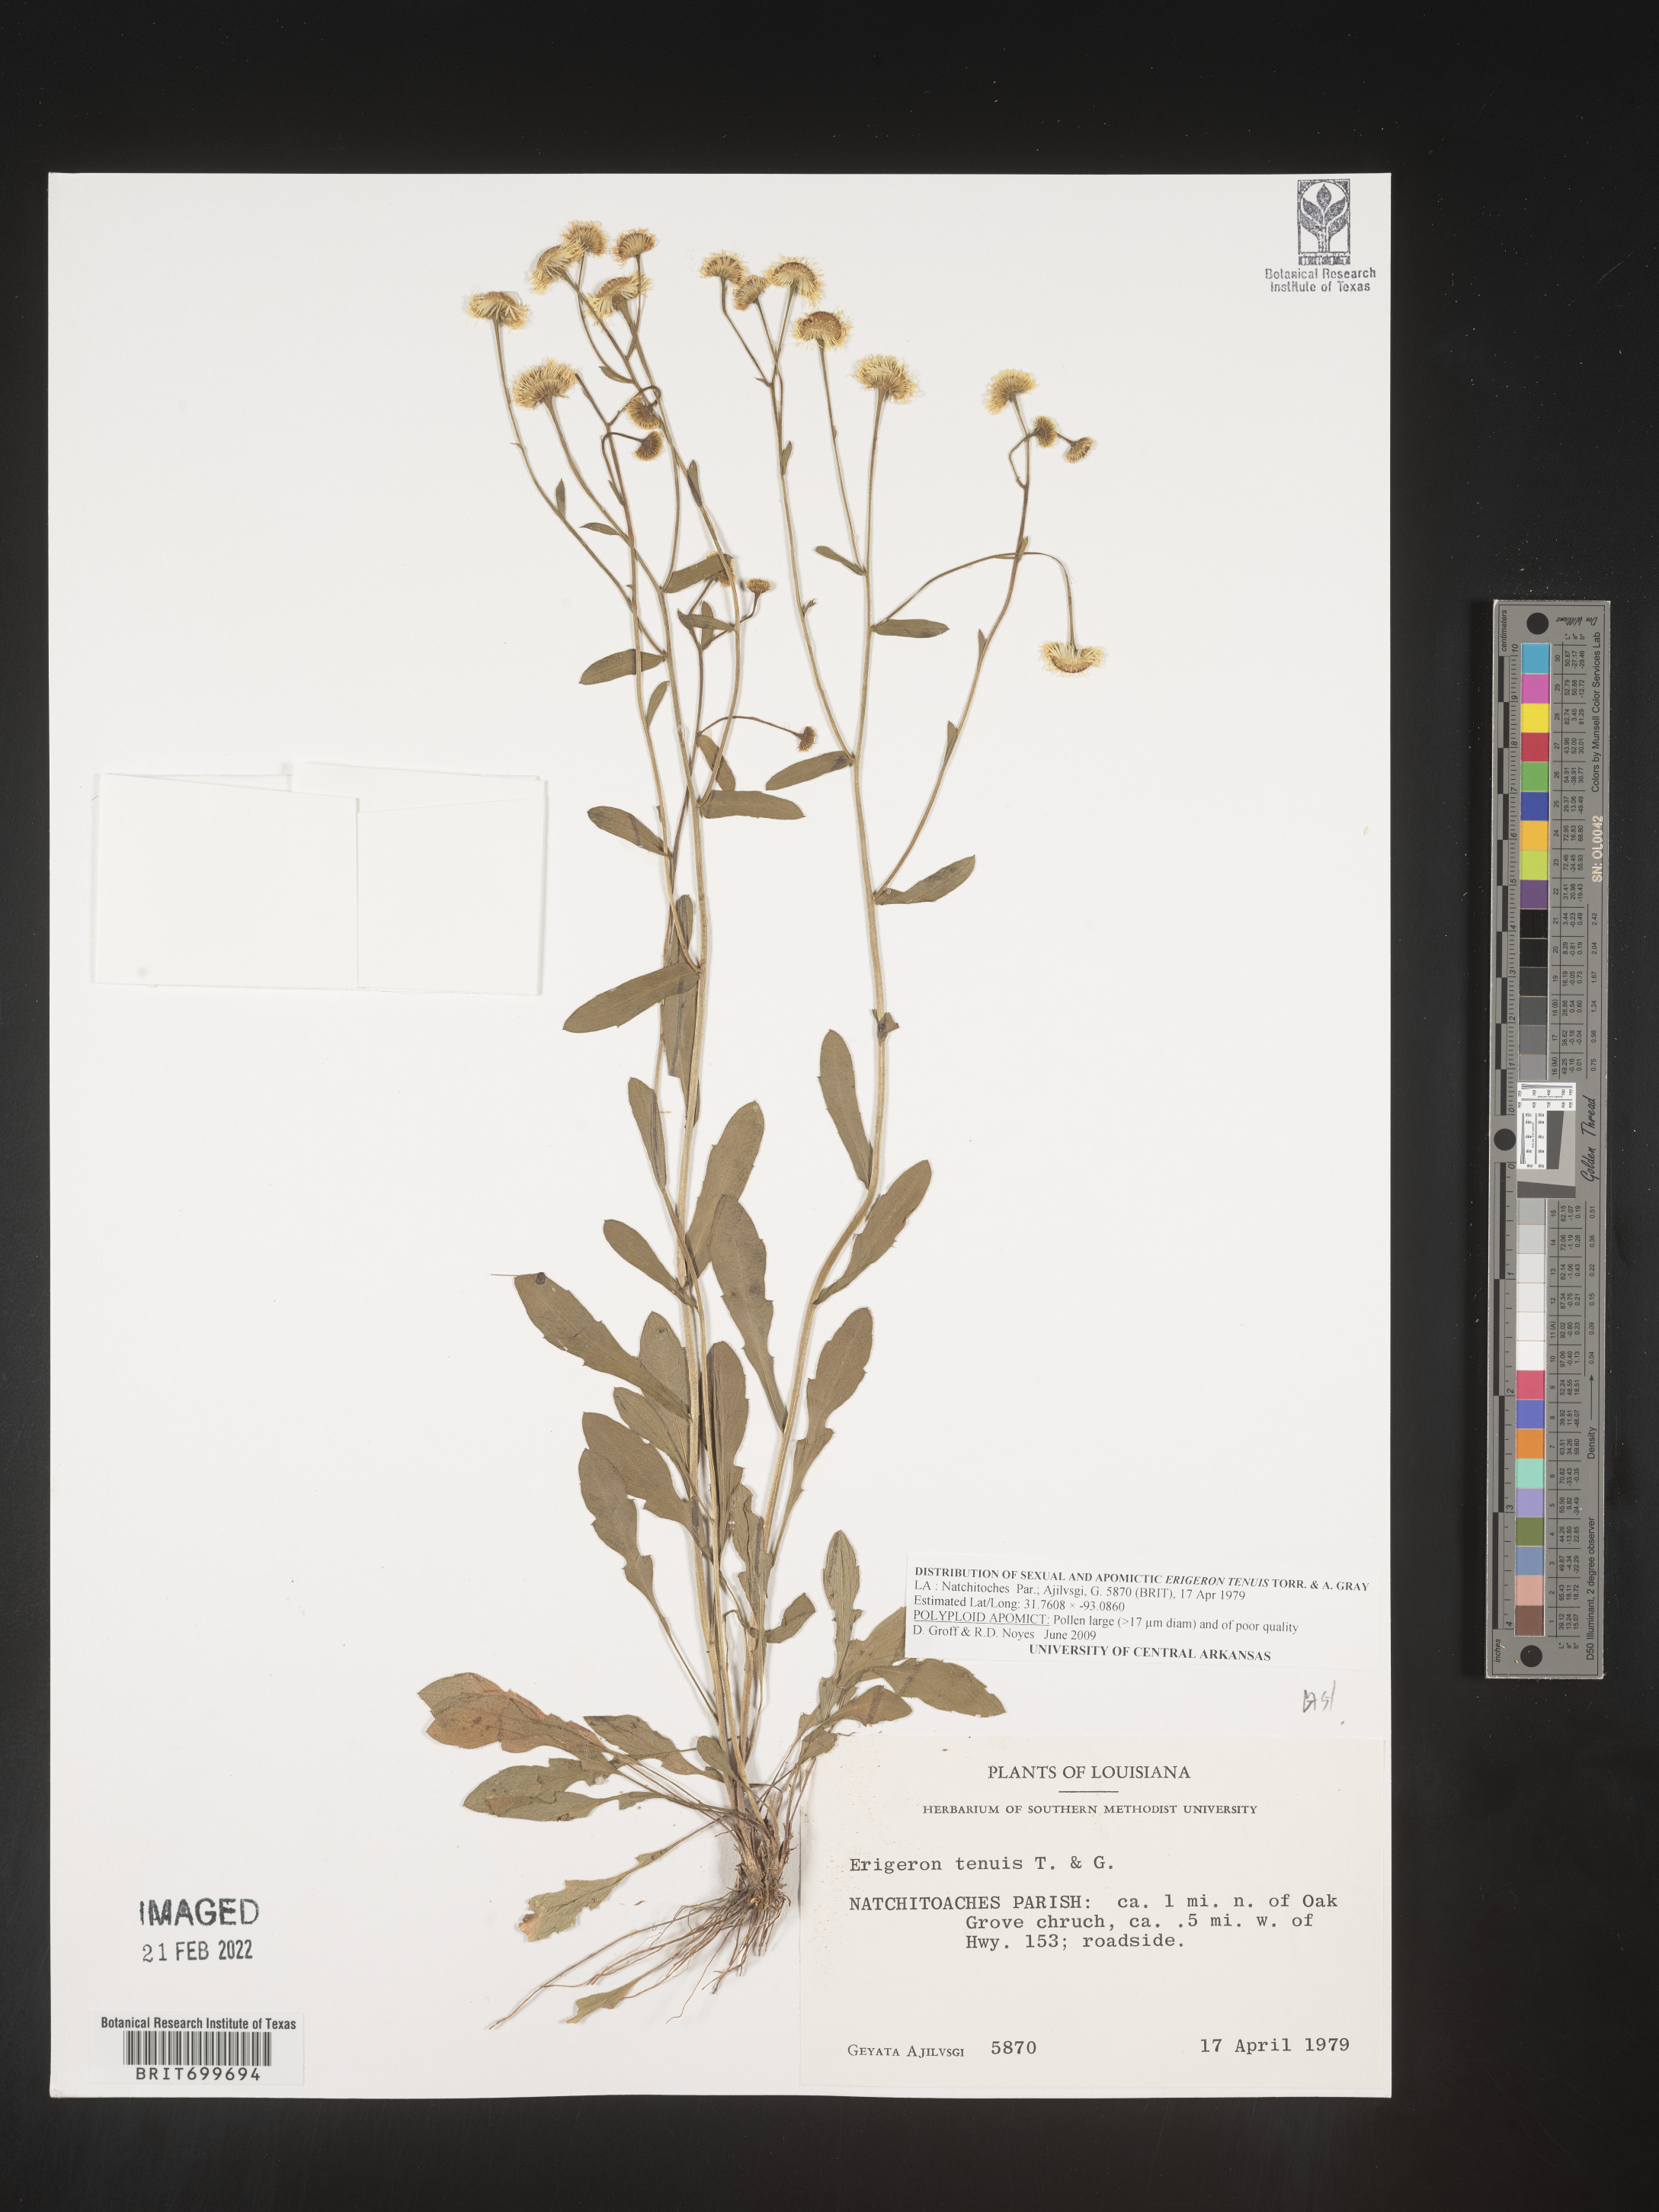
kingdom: Plantae
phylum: Tracheophyta
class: Magnoliopsida
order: Asterales
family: Asteraceae
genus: Erigeron
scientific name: Erigeron tenuis
